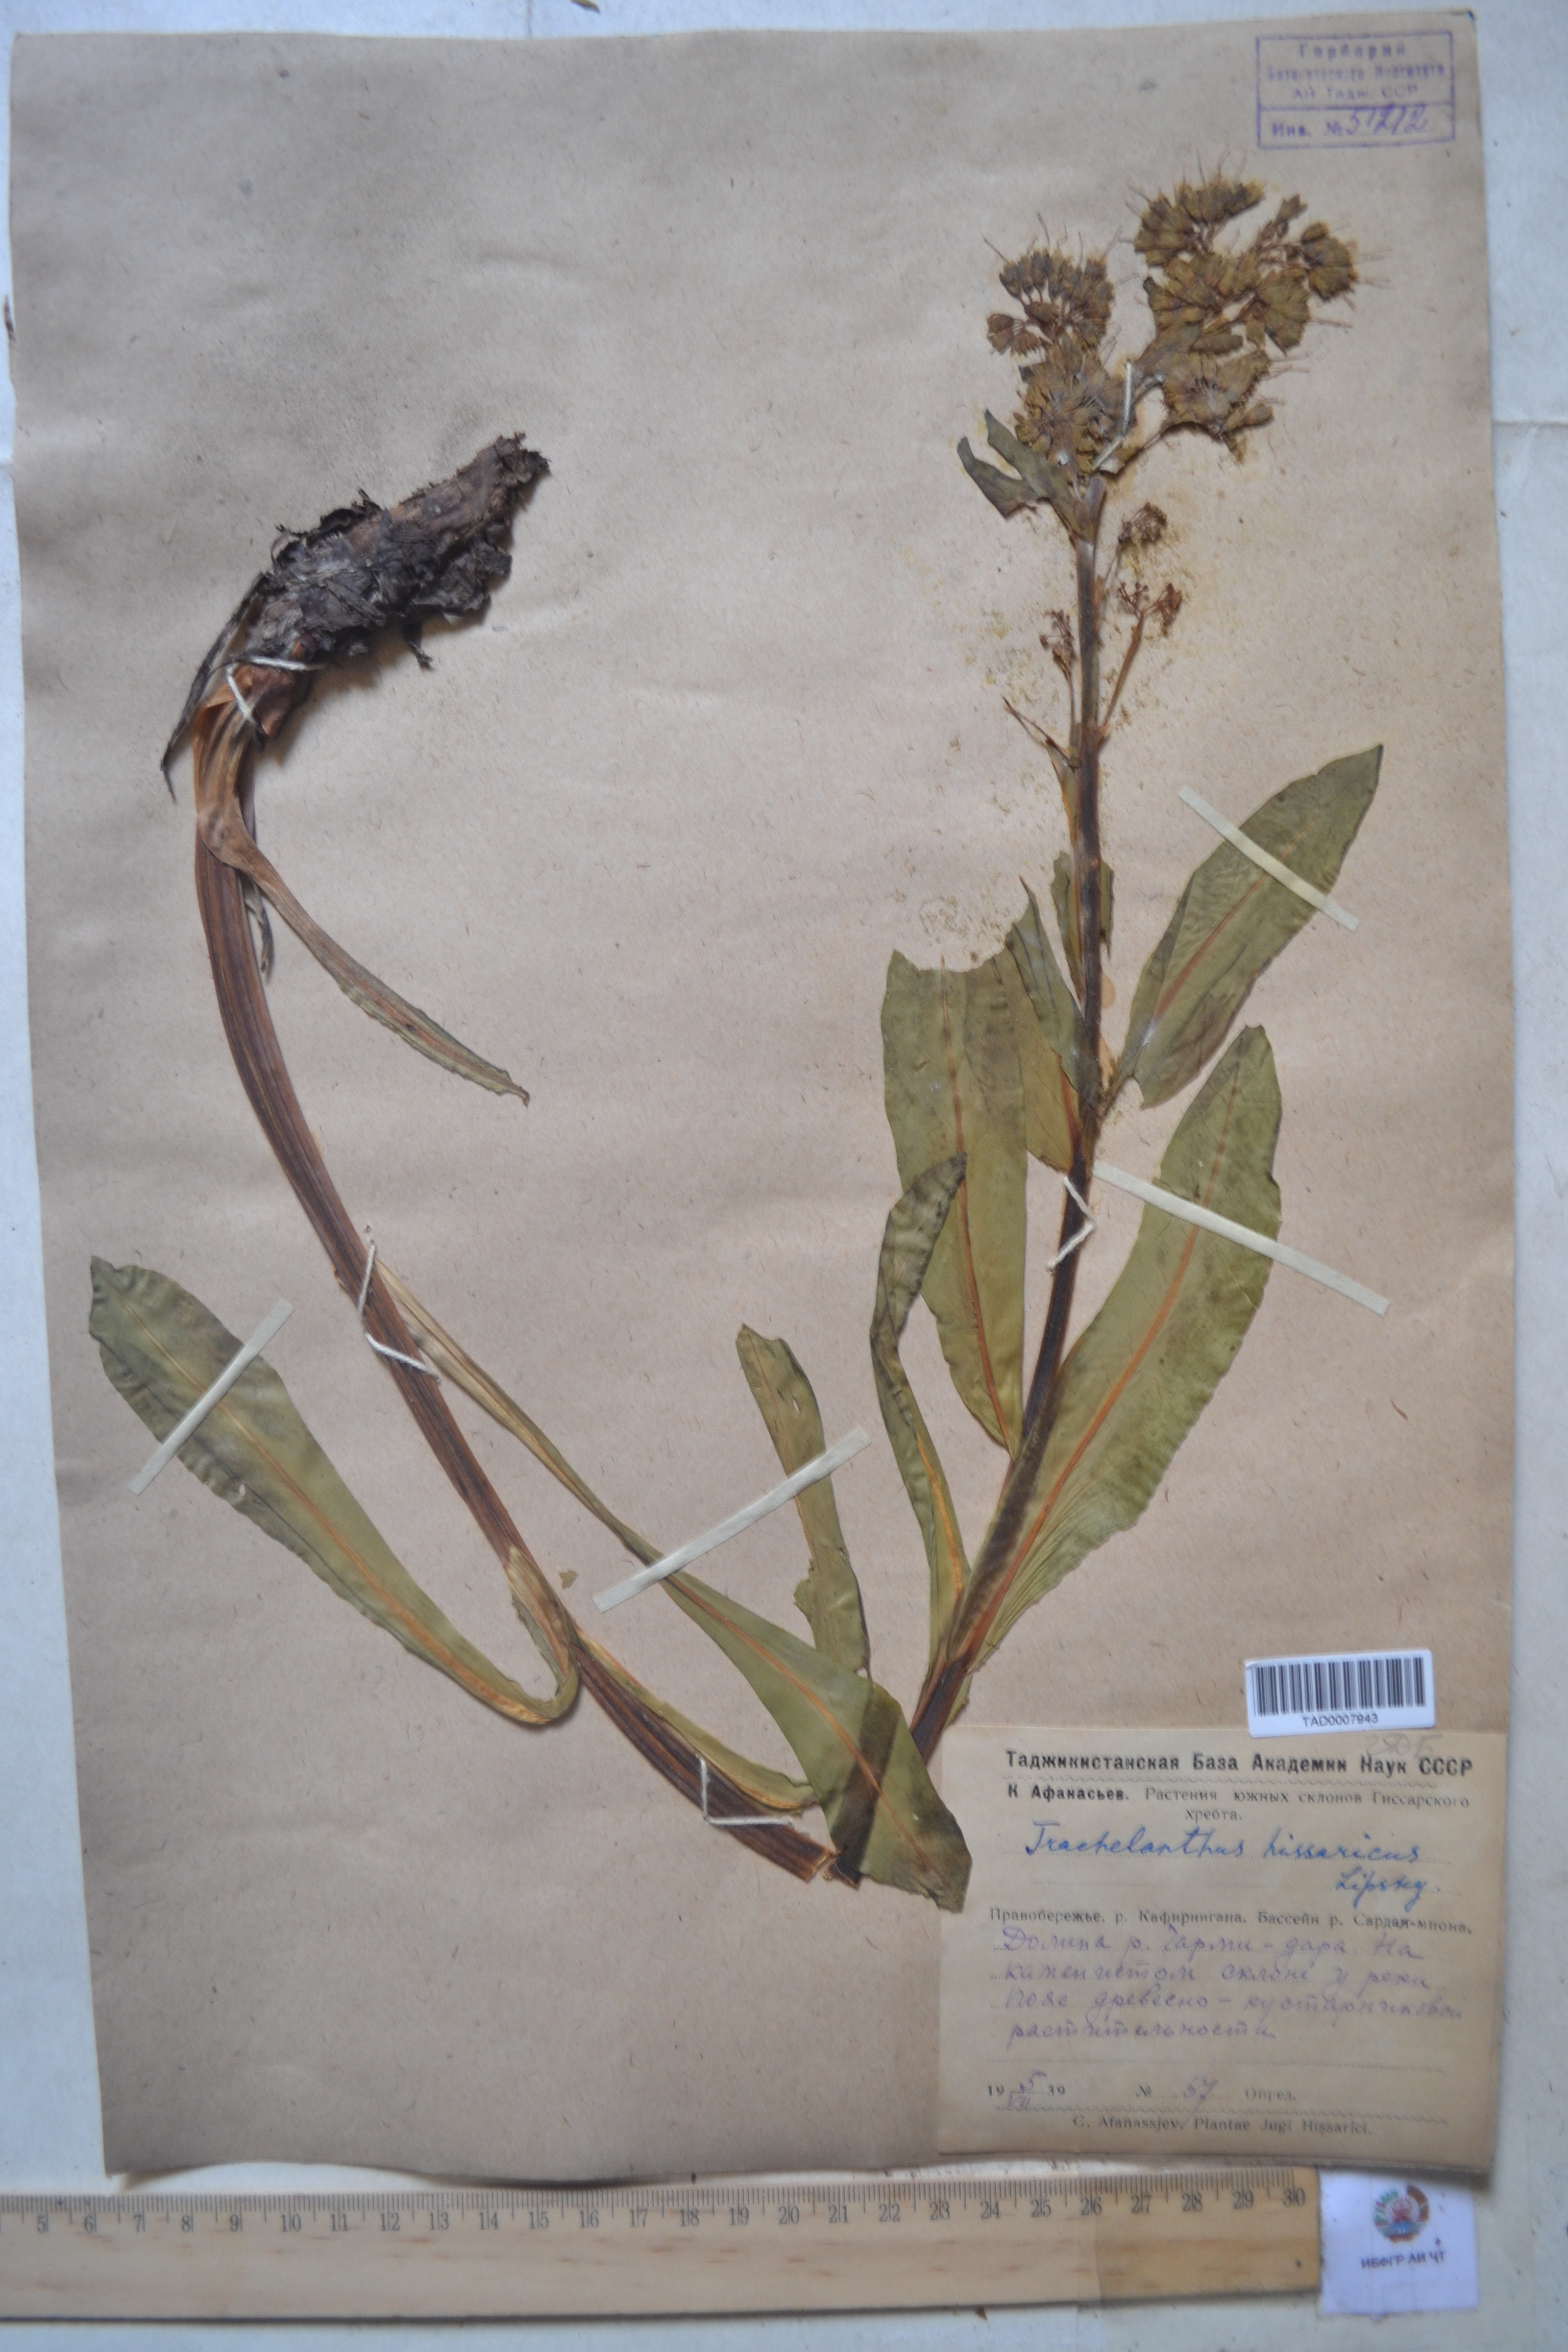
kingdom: Plantae
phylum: Tracheophyta
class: Magnoliopsida
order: Boraginales
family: Boraginaceae
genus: Lindelofia
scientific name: Lindelofia hissarica
